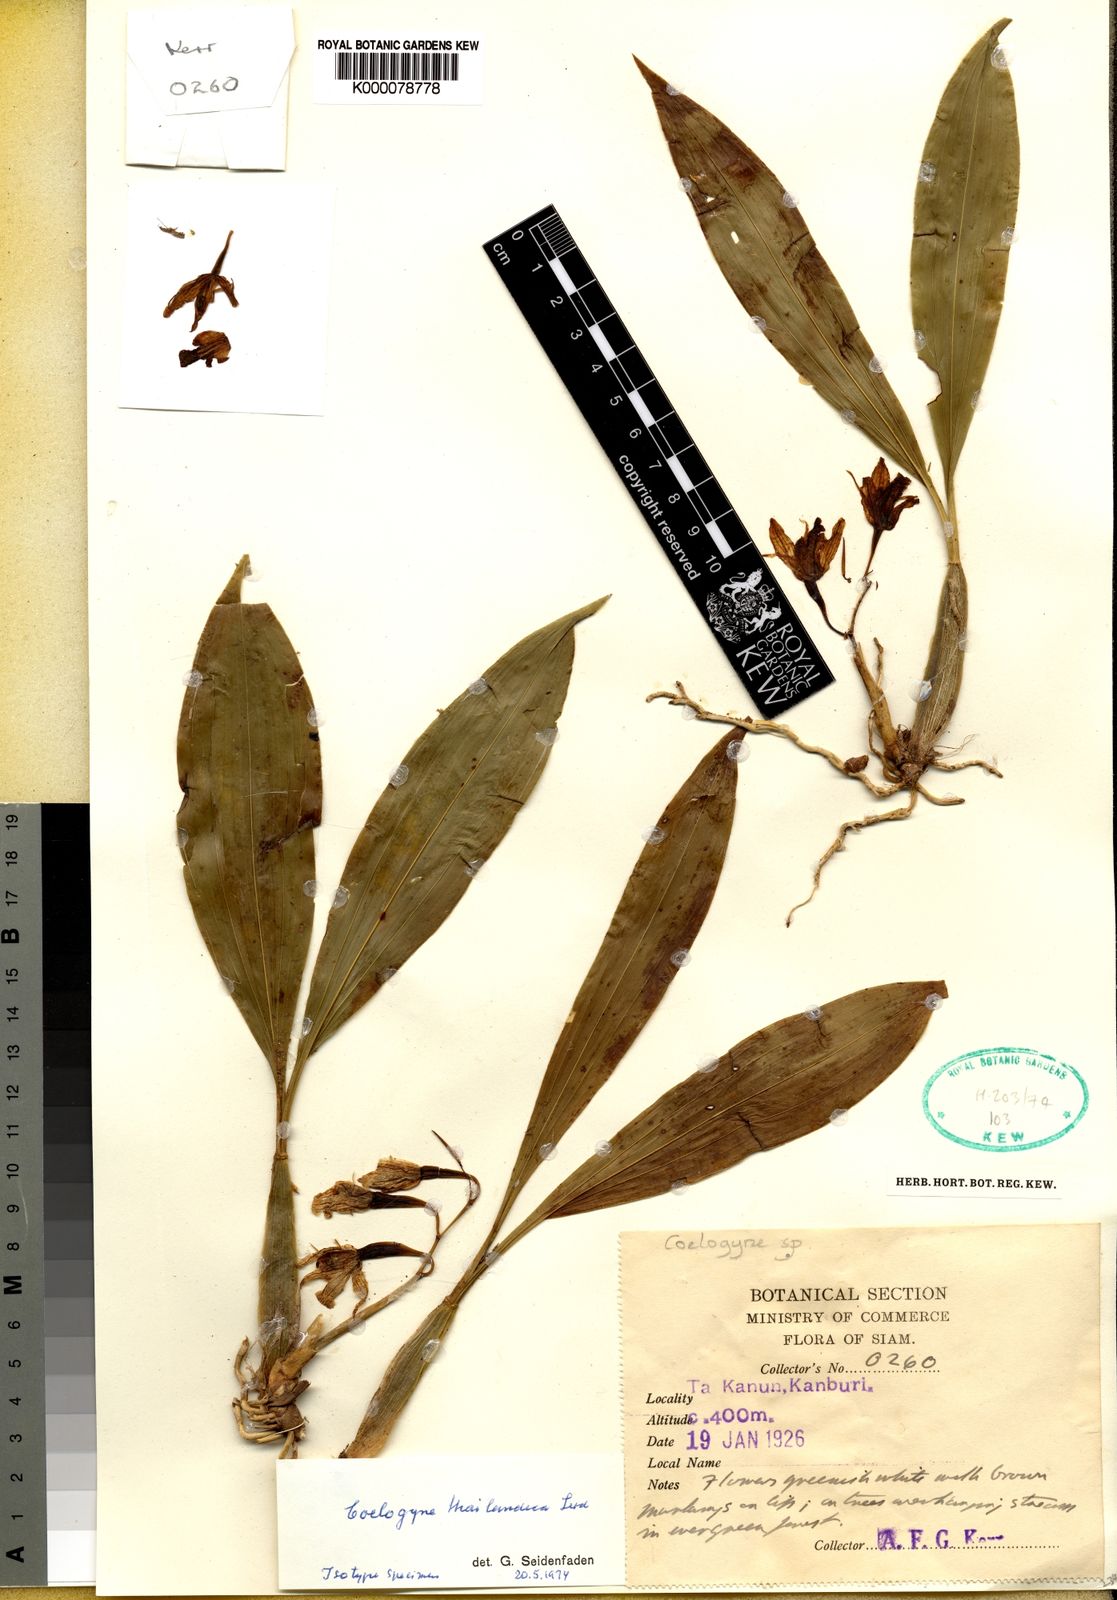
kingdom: Plantae
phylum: Tracheophyta
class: Liliopsida
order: Asparagales
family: Orchidaceae
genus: Coelogyne
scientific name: Coelogyne quadratiloba
